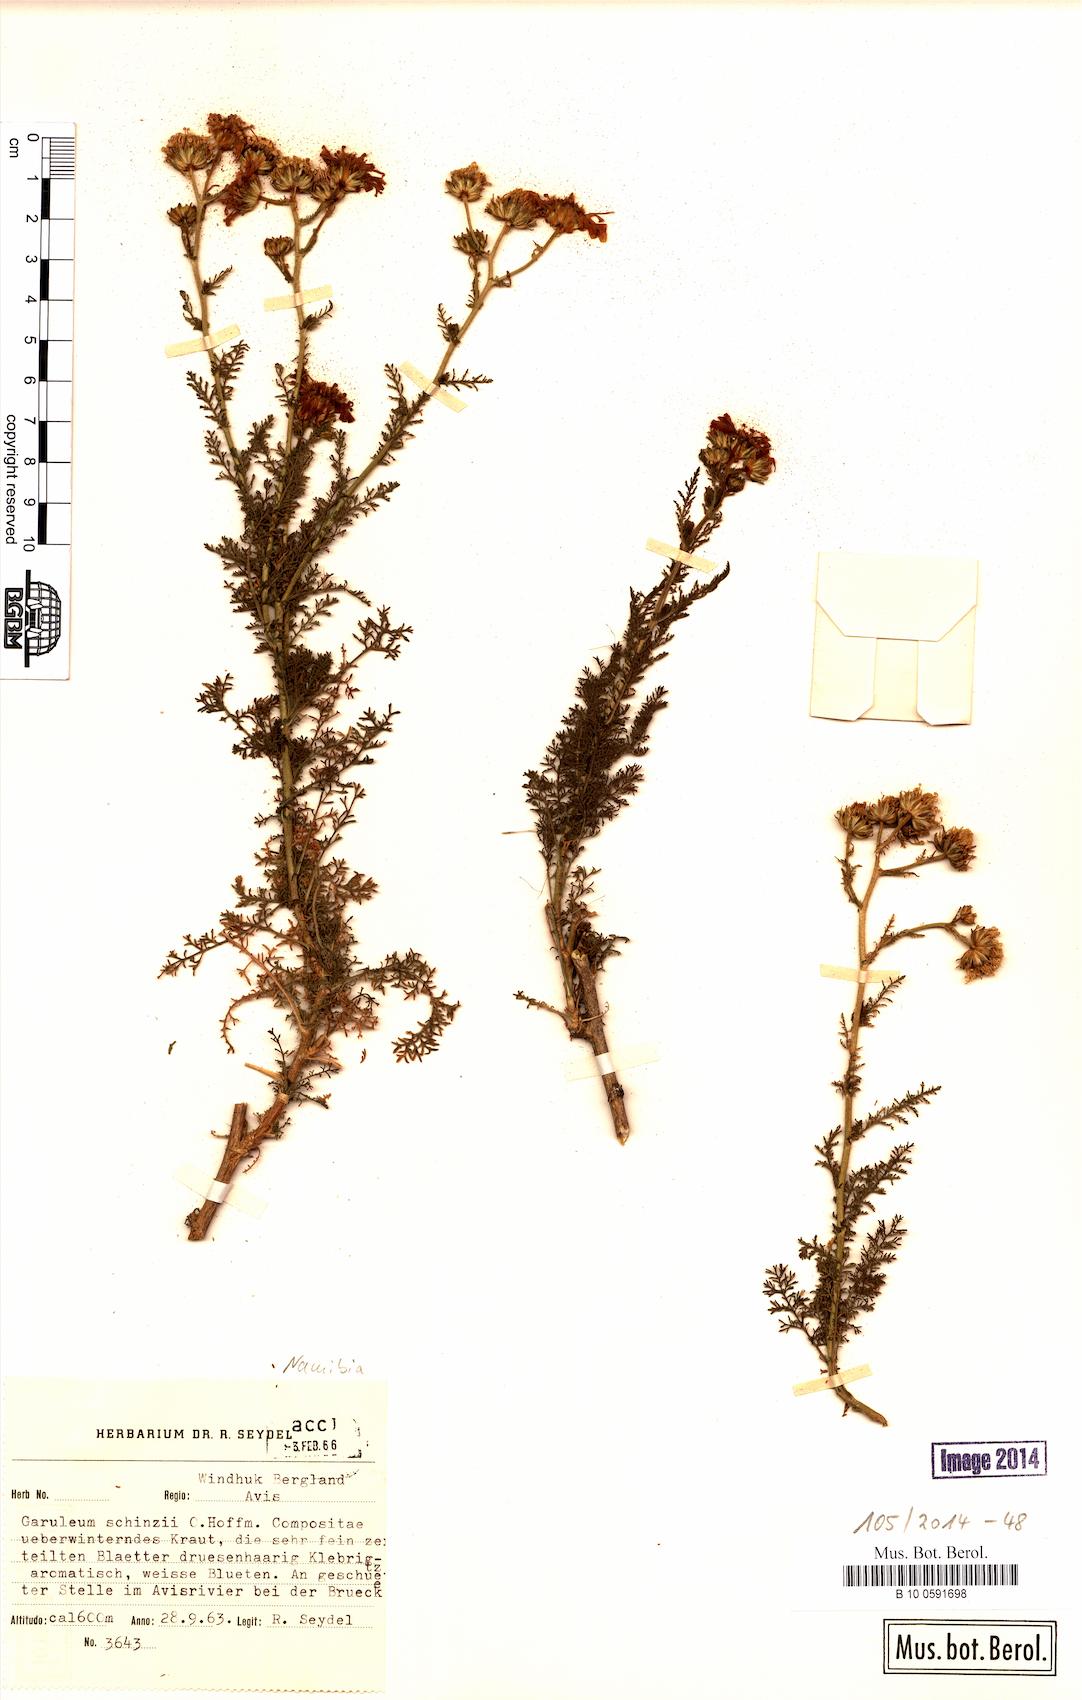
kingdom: Plantae
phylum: Tracheophyta
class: Magnoliopsida
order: Asterales
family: Asteraceae
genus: Garuleum
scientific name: Garuleum schinzii
